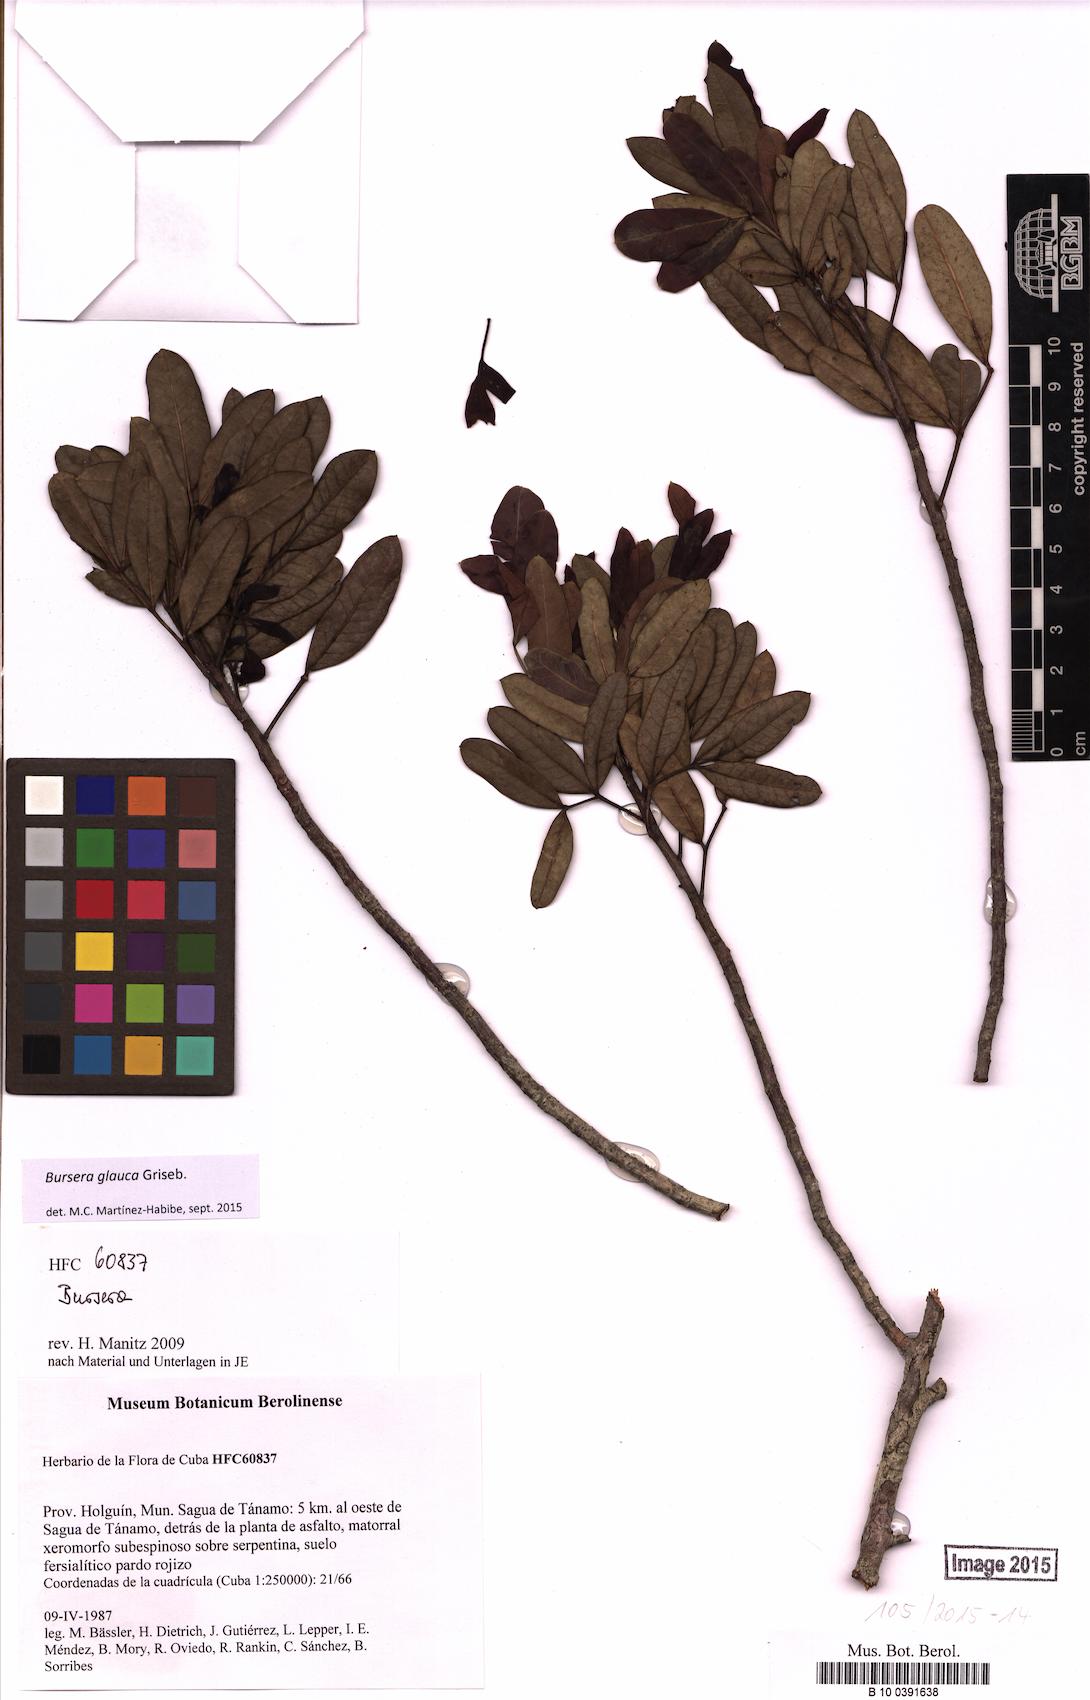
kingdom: Plantae
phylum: Tracheophyta
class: Magnoliopsida
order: Sapindales
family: Burseraceae
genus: Bursera
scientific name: Bursera glauca
